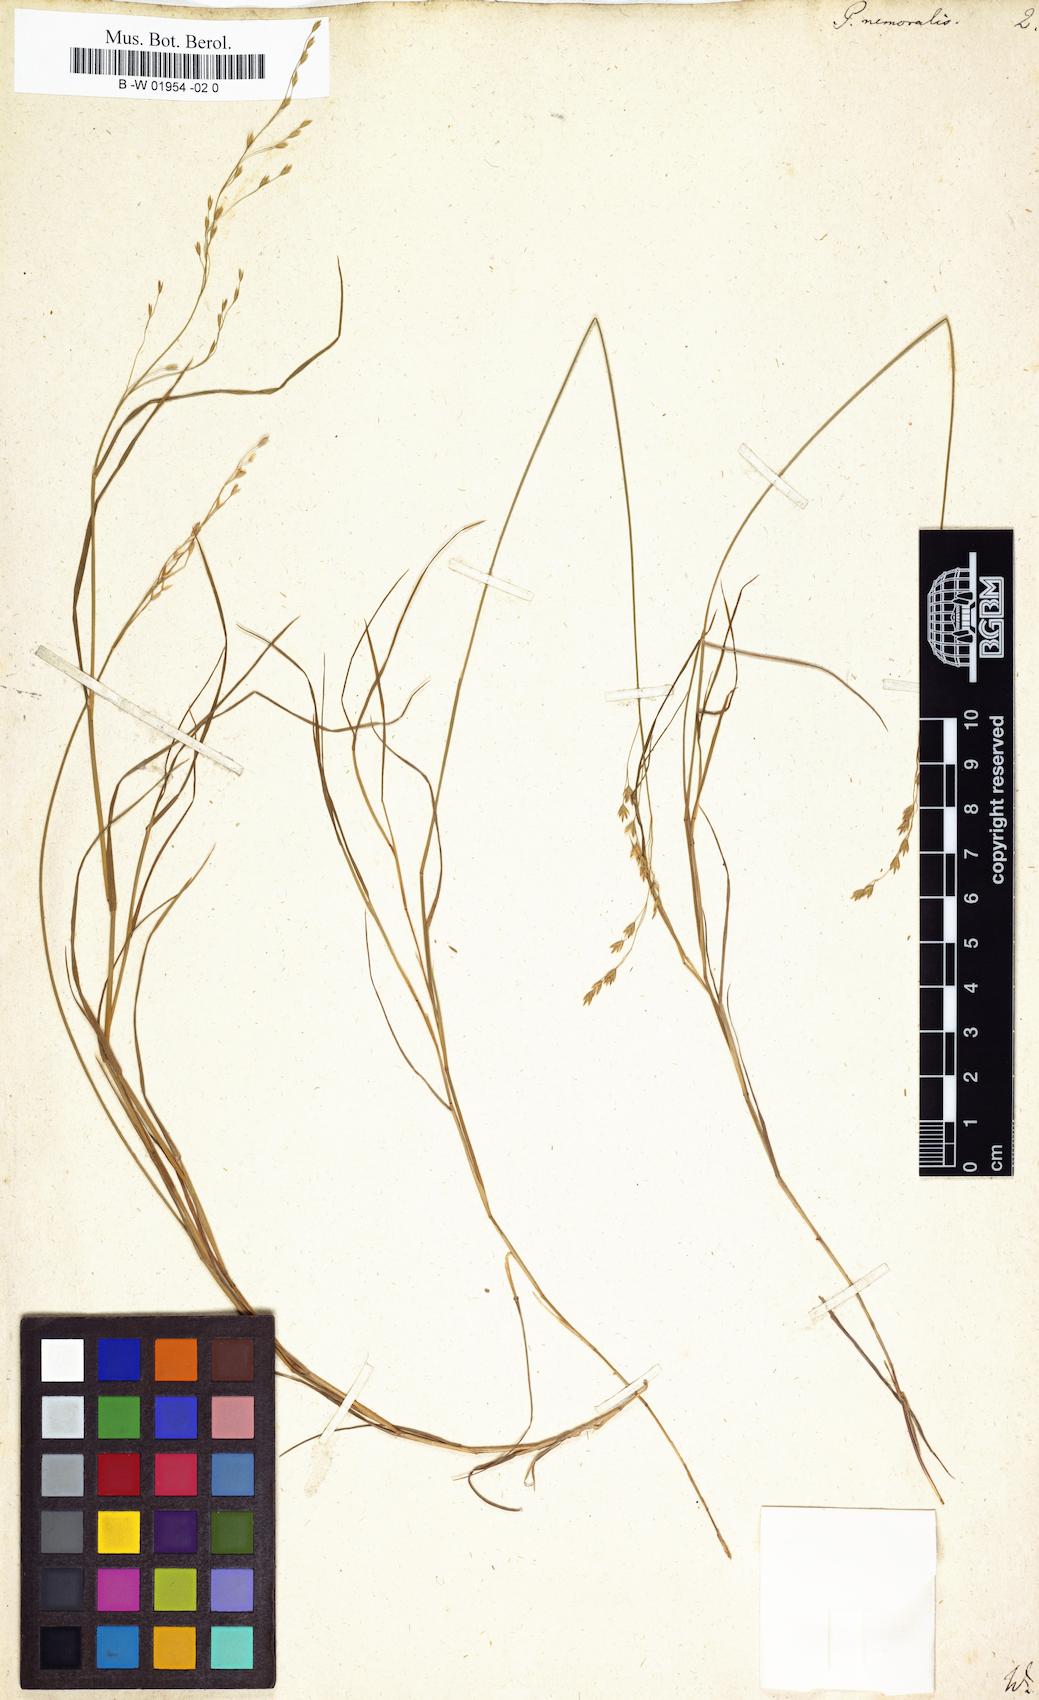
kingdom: Plantae
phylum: Tracheophyta
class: Liliopsida
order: Poales
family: Poaceae
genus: Poa
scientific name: Poa nemoralis
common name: Wood bluegrass
